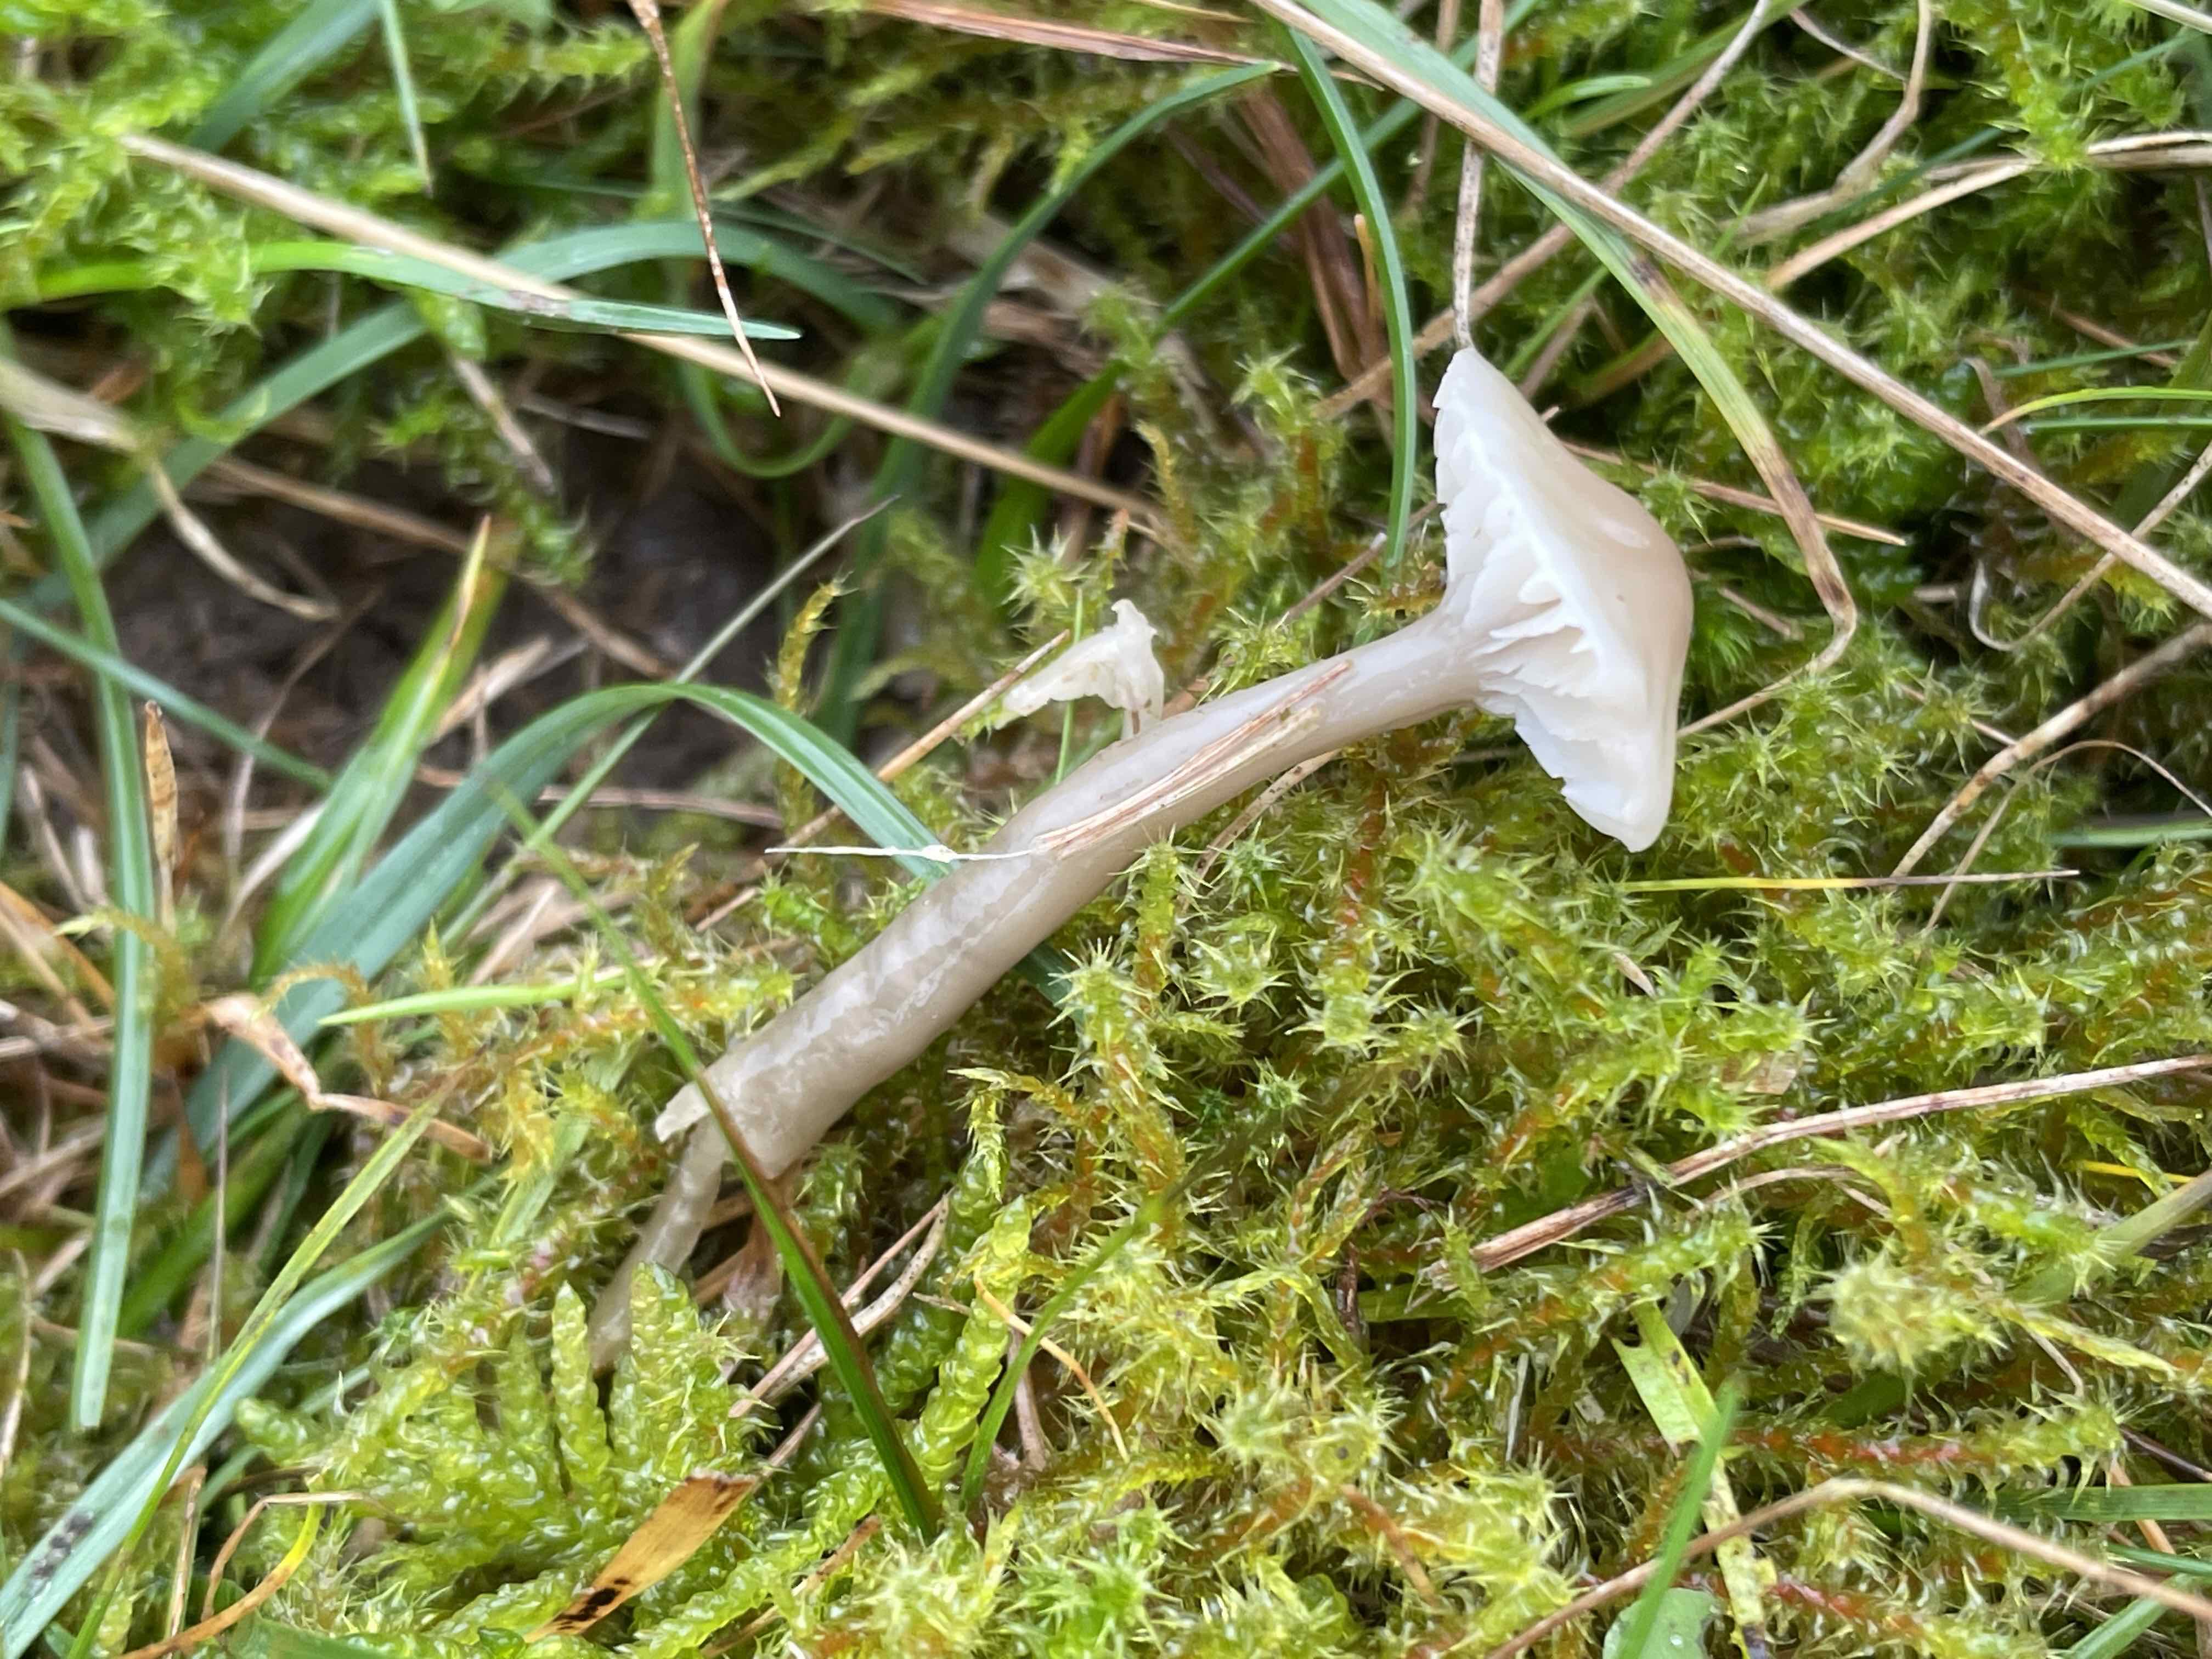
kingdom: Fungi
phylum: Basidiomycota
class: Agaricomycetes
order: Agaricales
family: Hygrophoraceae
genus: Gliophorus
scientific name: Gliophorus irrigatus
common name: slimet vokshat
